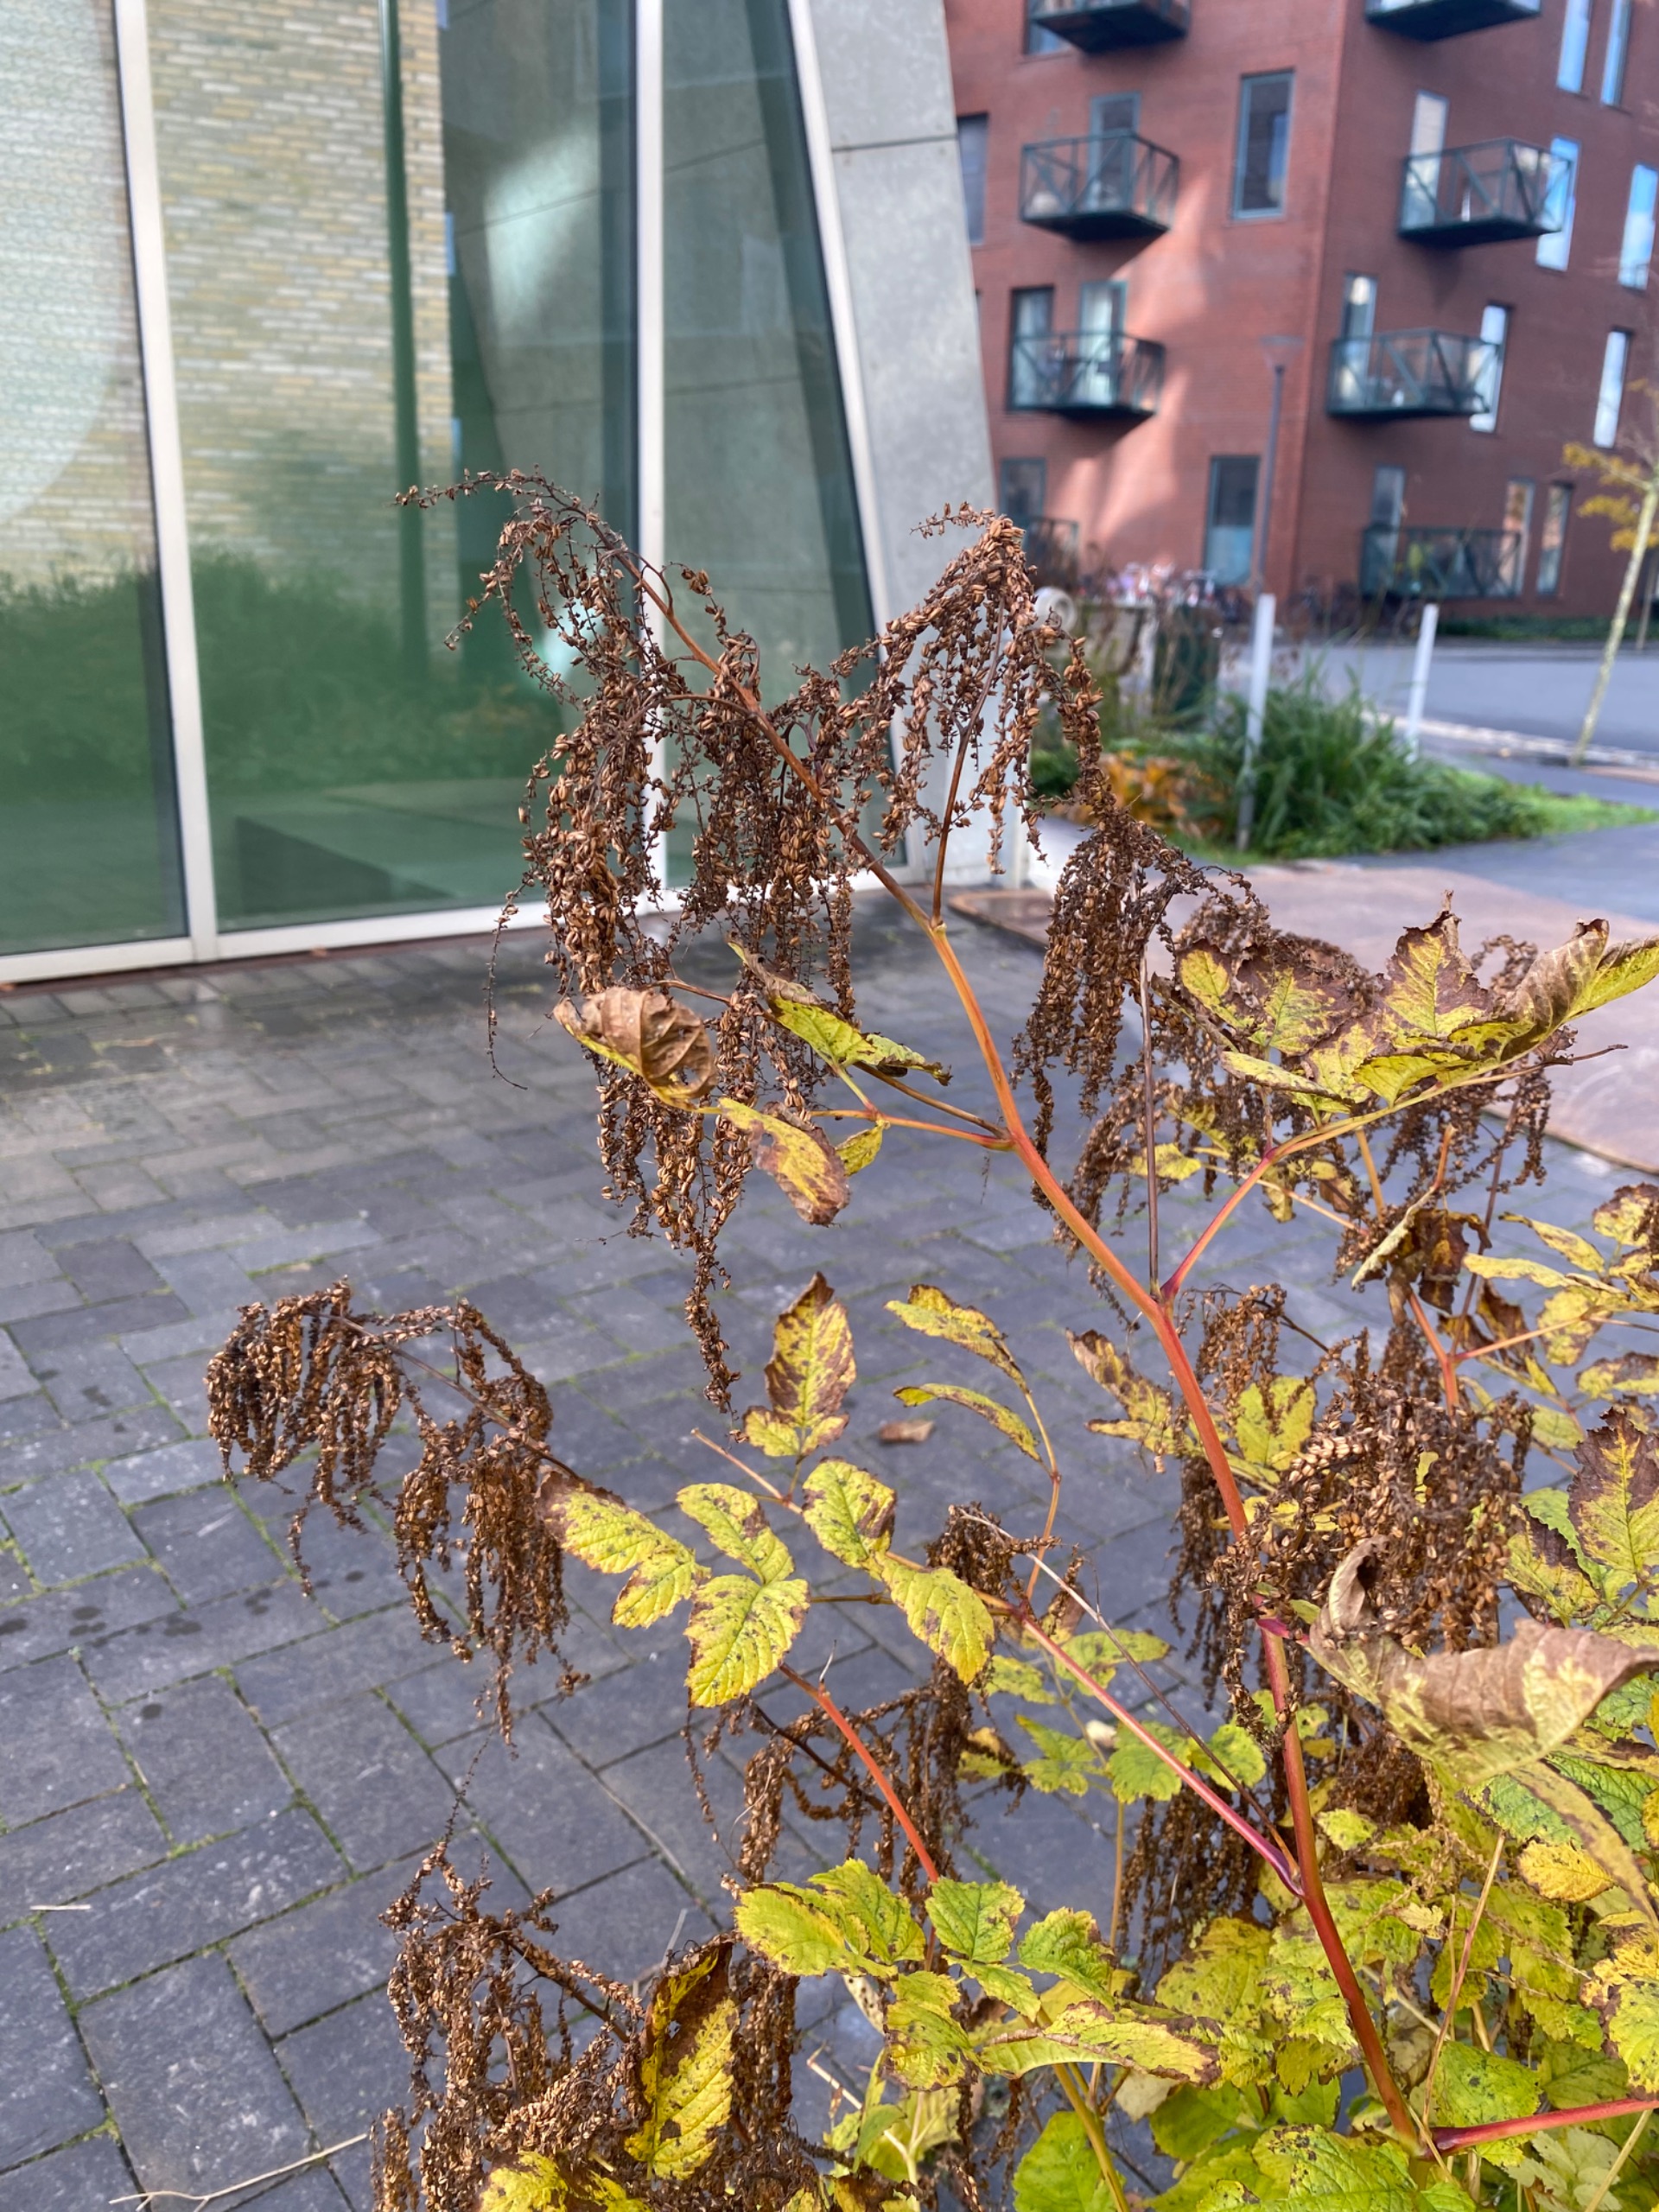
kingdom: Plantae
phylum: Tracheophyta
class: Magnoliopsida
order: Rosales
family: Rosaceae
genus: Aruncus
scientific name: Aruncus dioicus
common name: Fjerbusk
